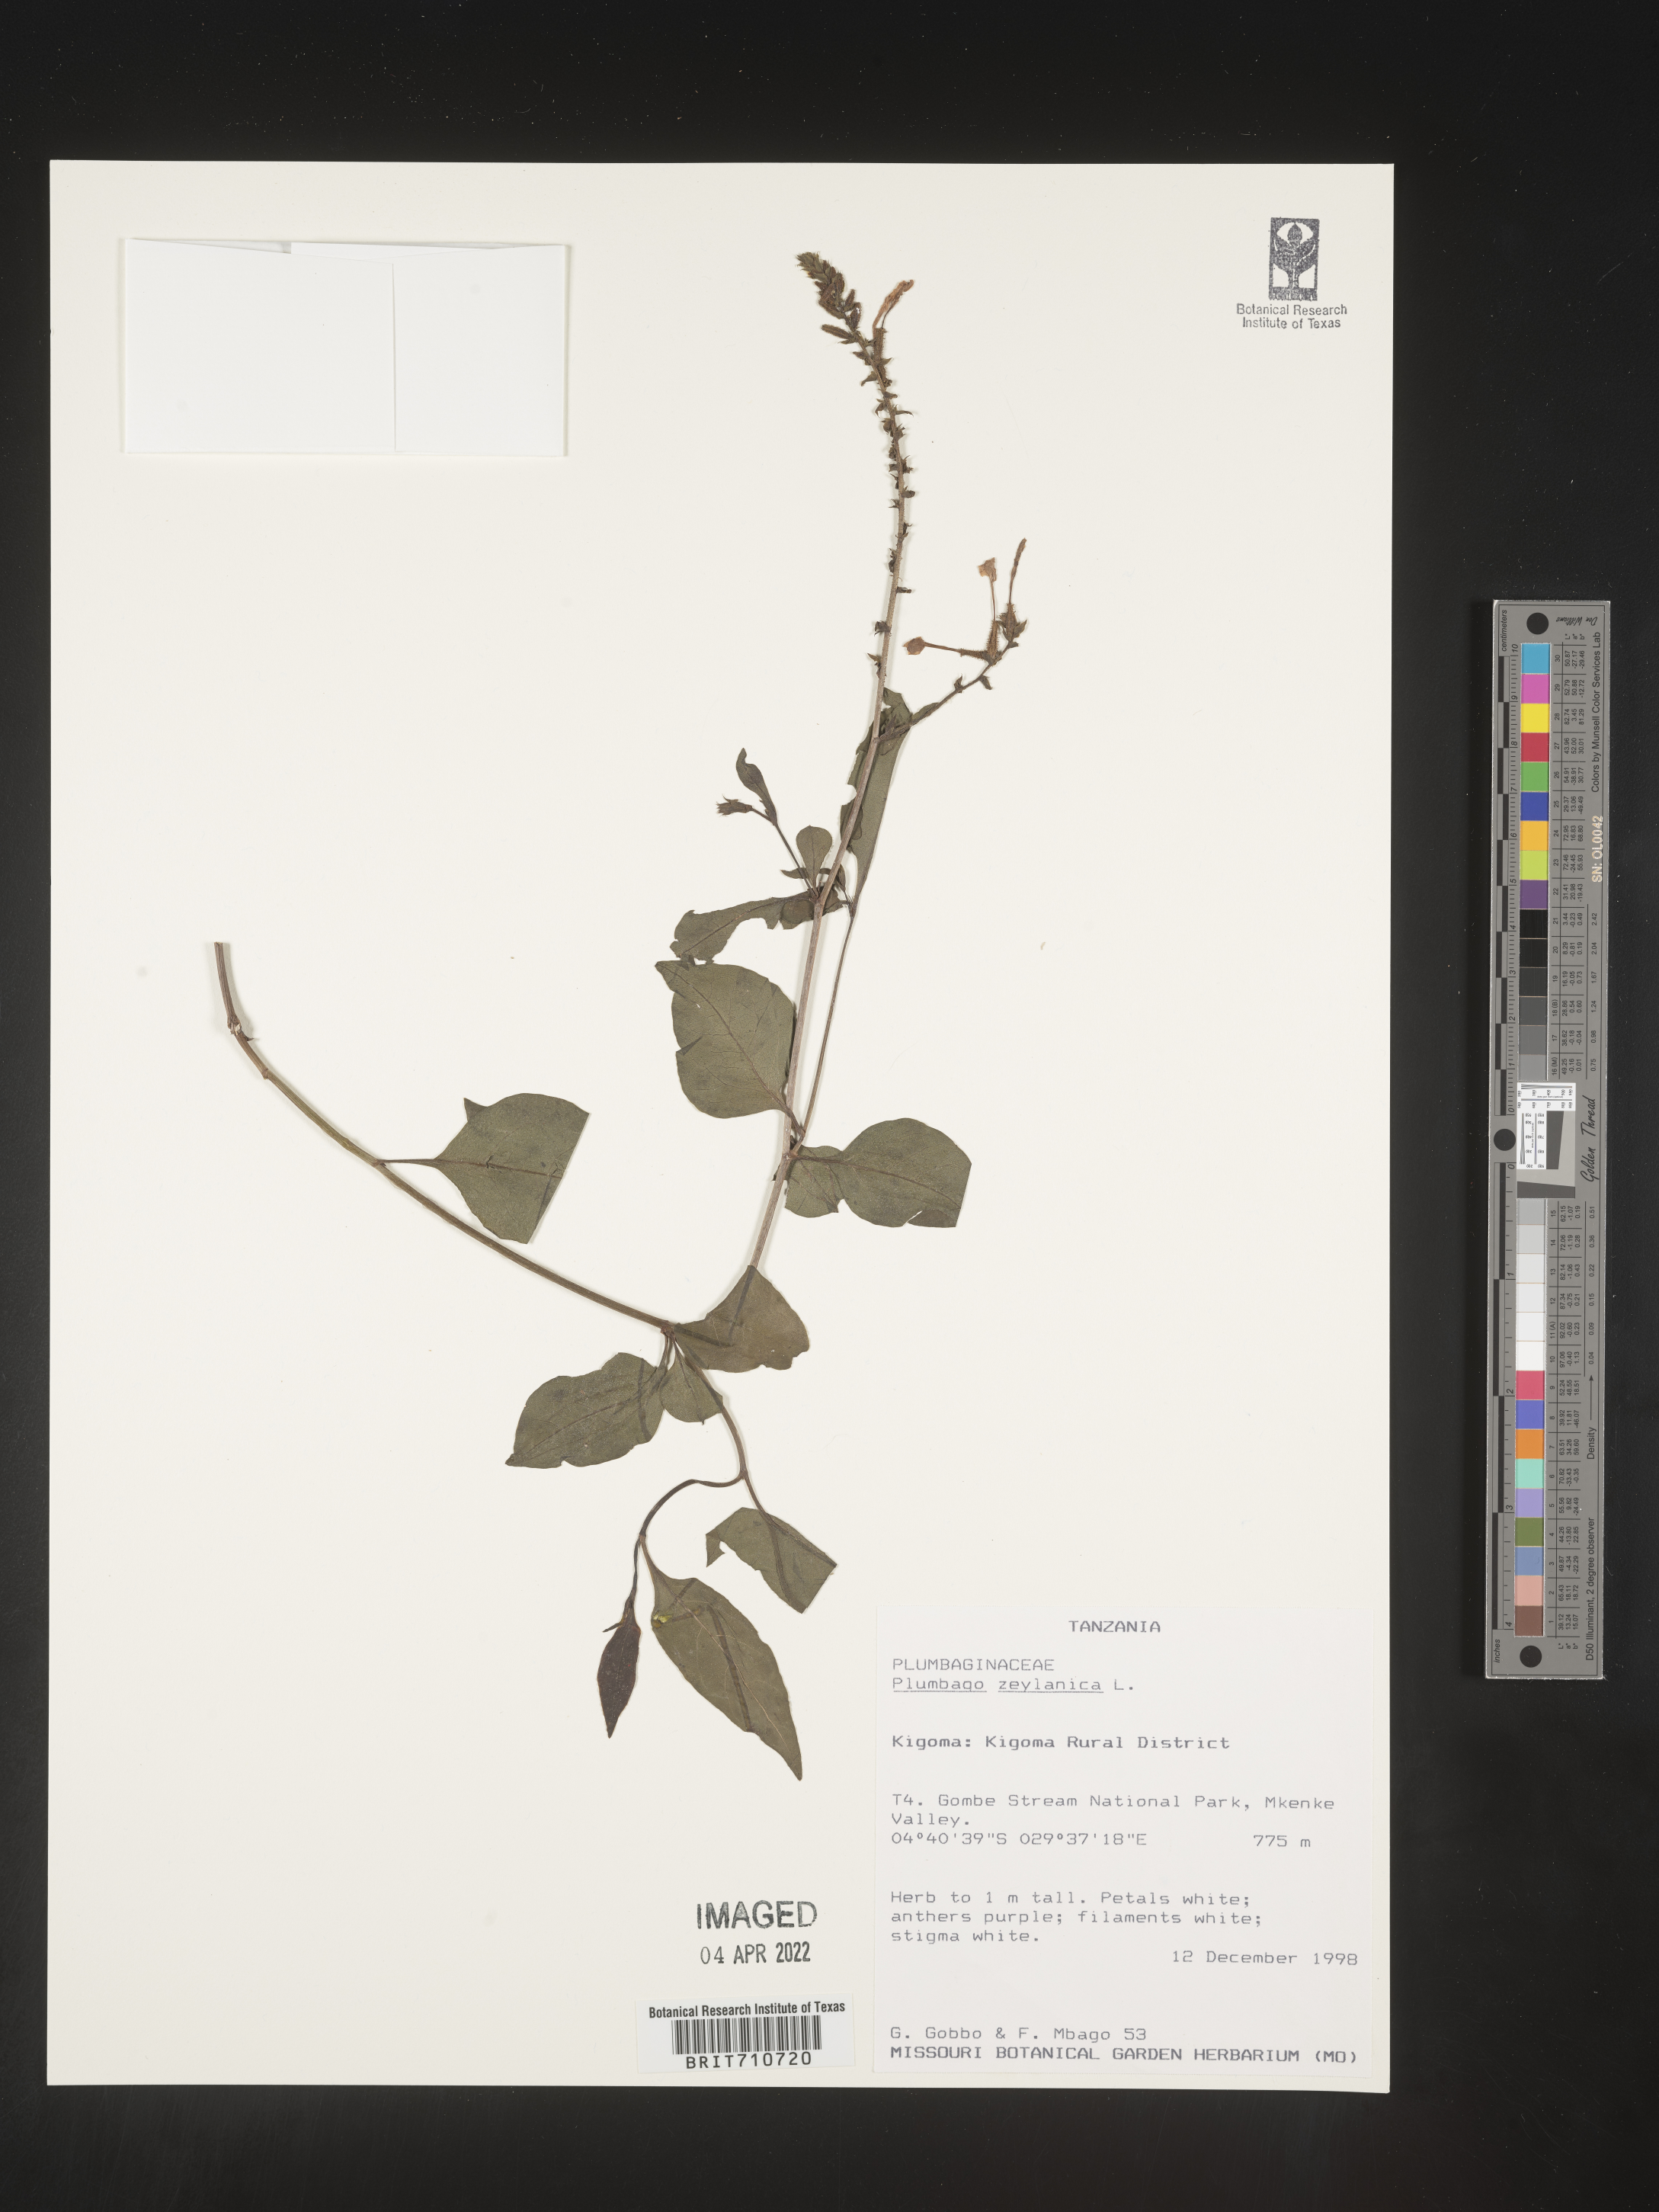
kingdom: Plantae
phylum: Tracheophyta
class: Magnoliopsida
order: Caryophyllales
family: Plumbaginaceae
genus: Plumbago
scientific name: Plumbago
